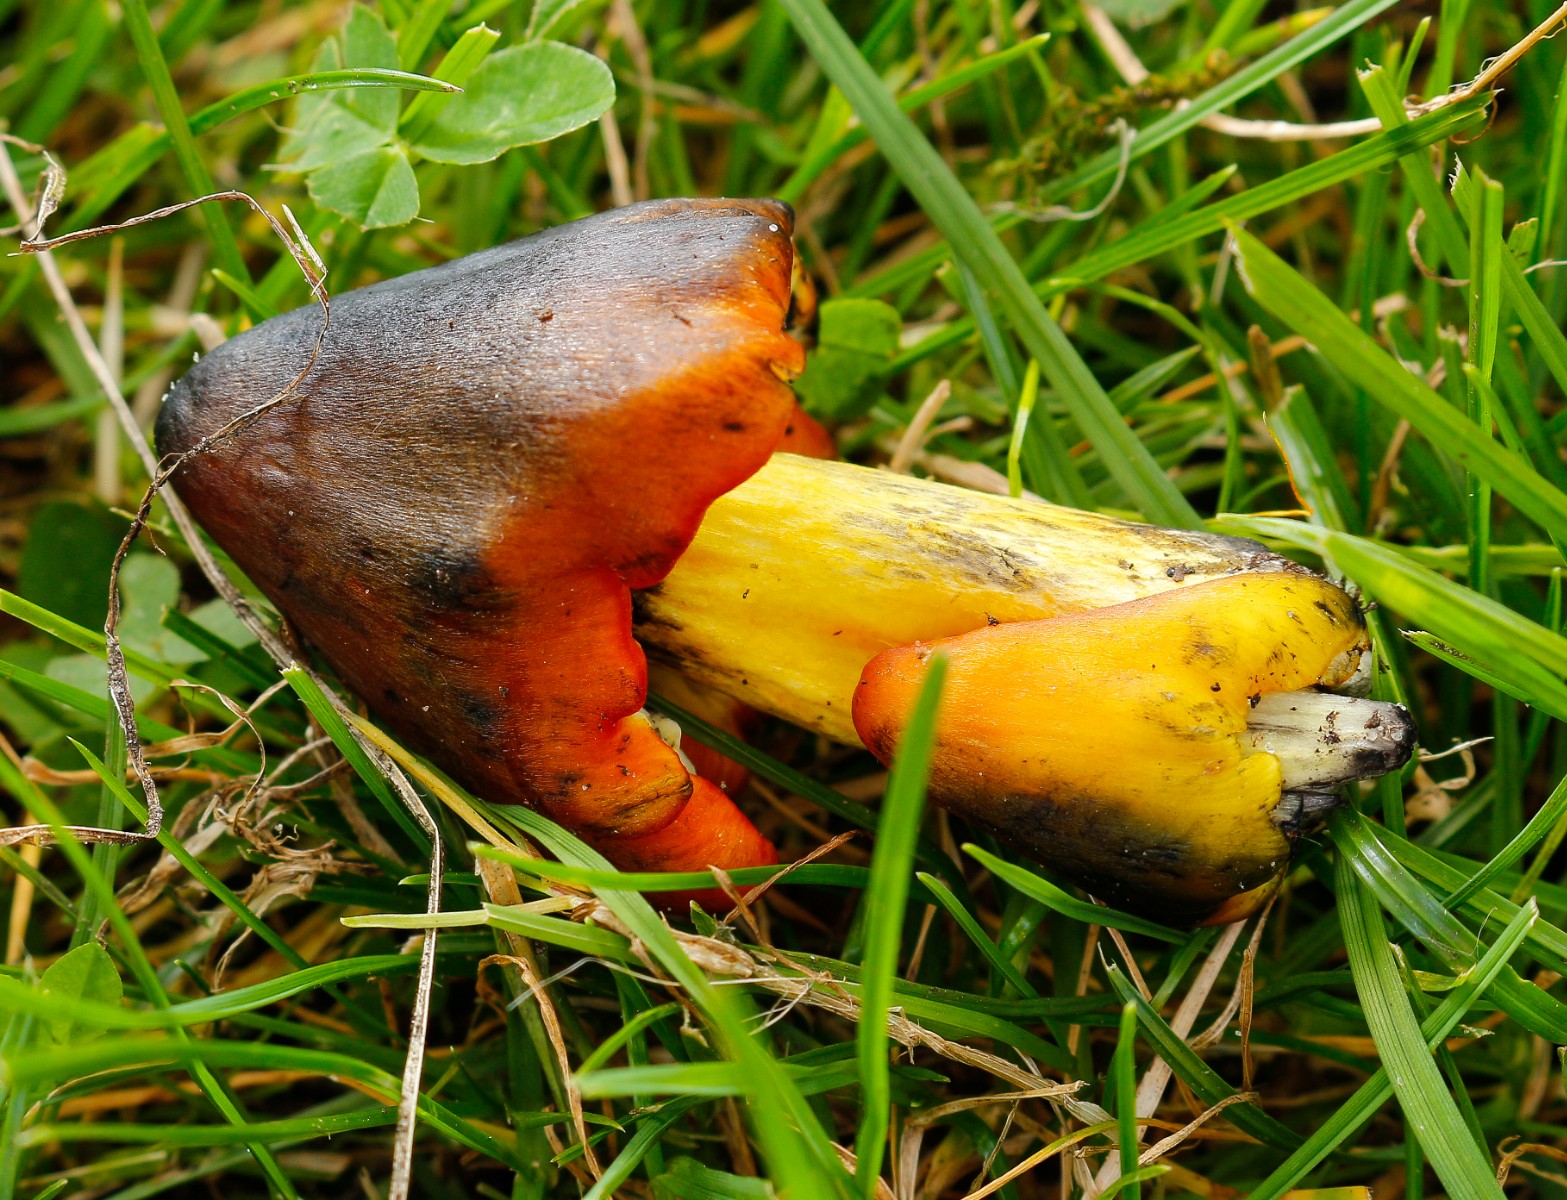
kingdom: Fungi
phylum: Basidiomycota
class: Agaricomycetes
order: Agaricales
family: Hygrophoraceae
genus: Hygrocybe
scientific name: Hygrocybe conica
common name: kegle-vokshat
